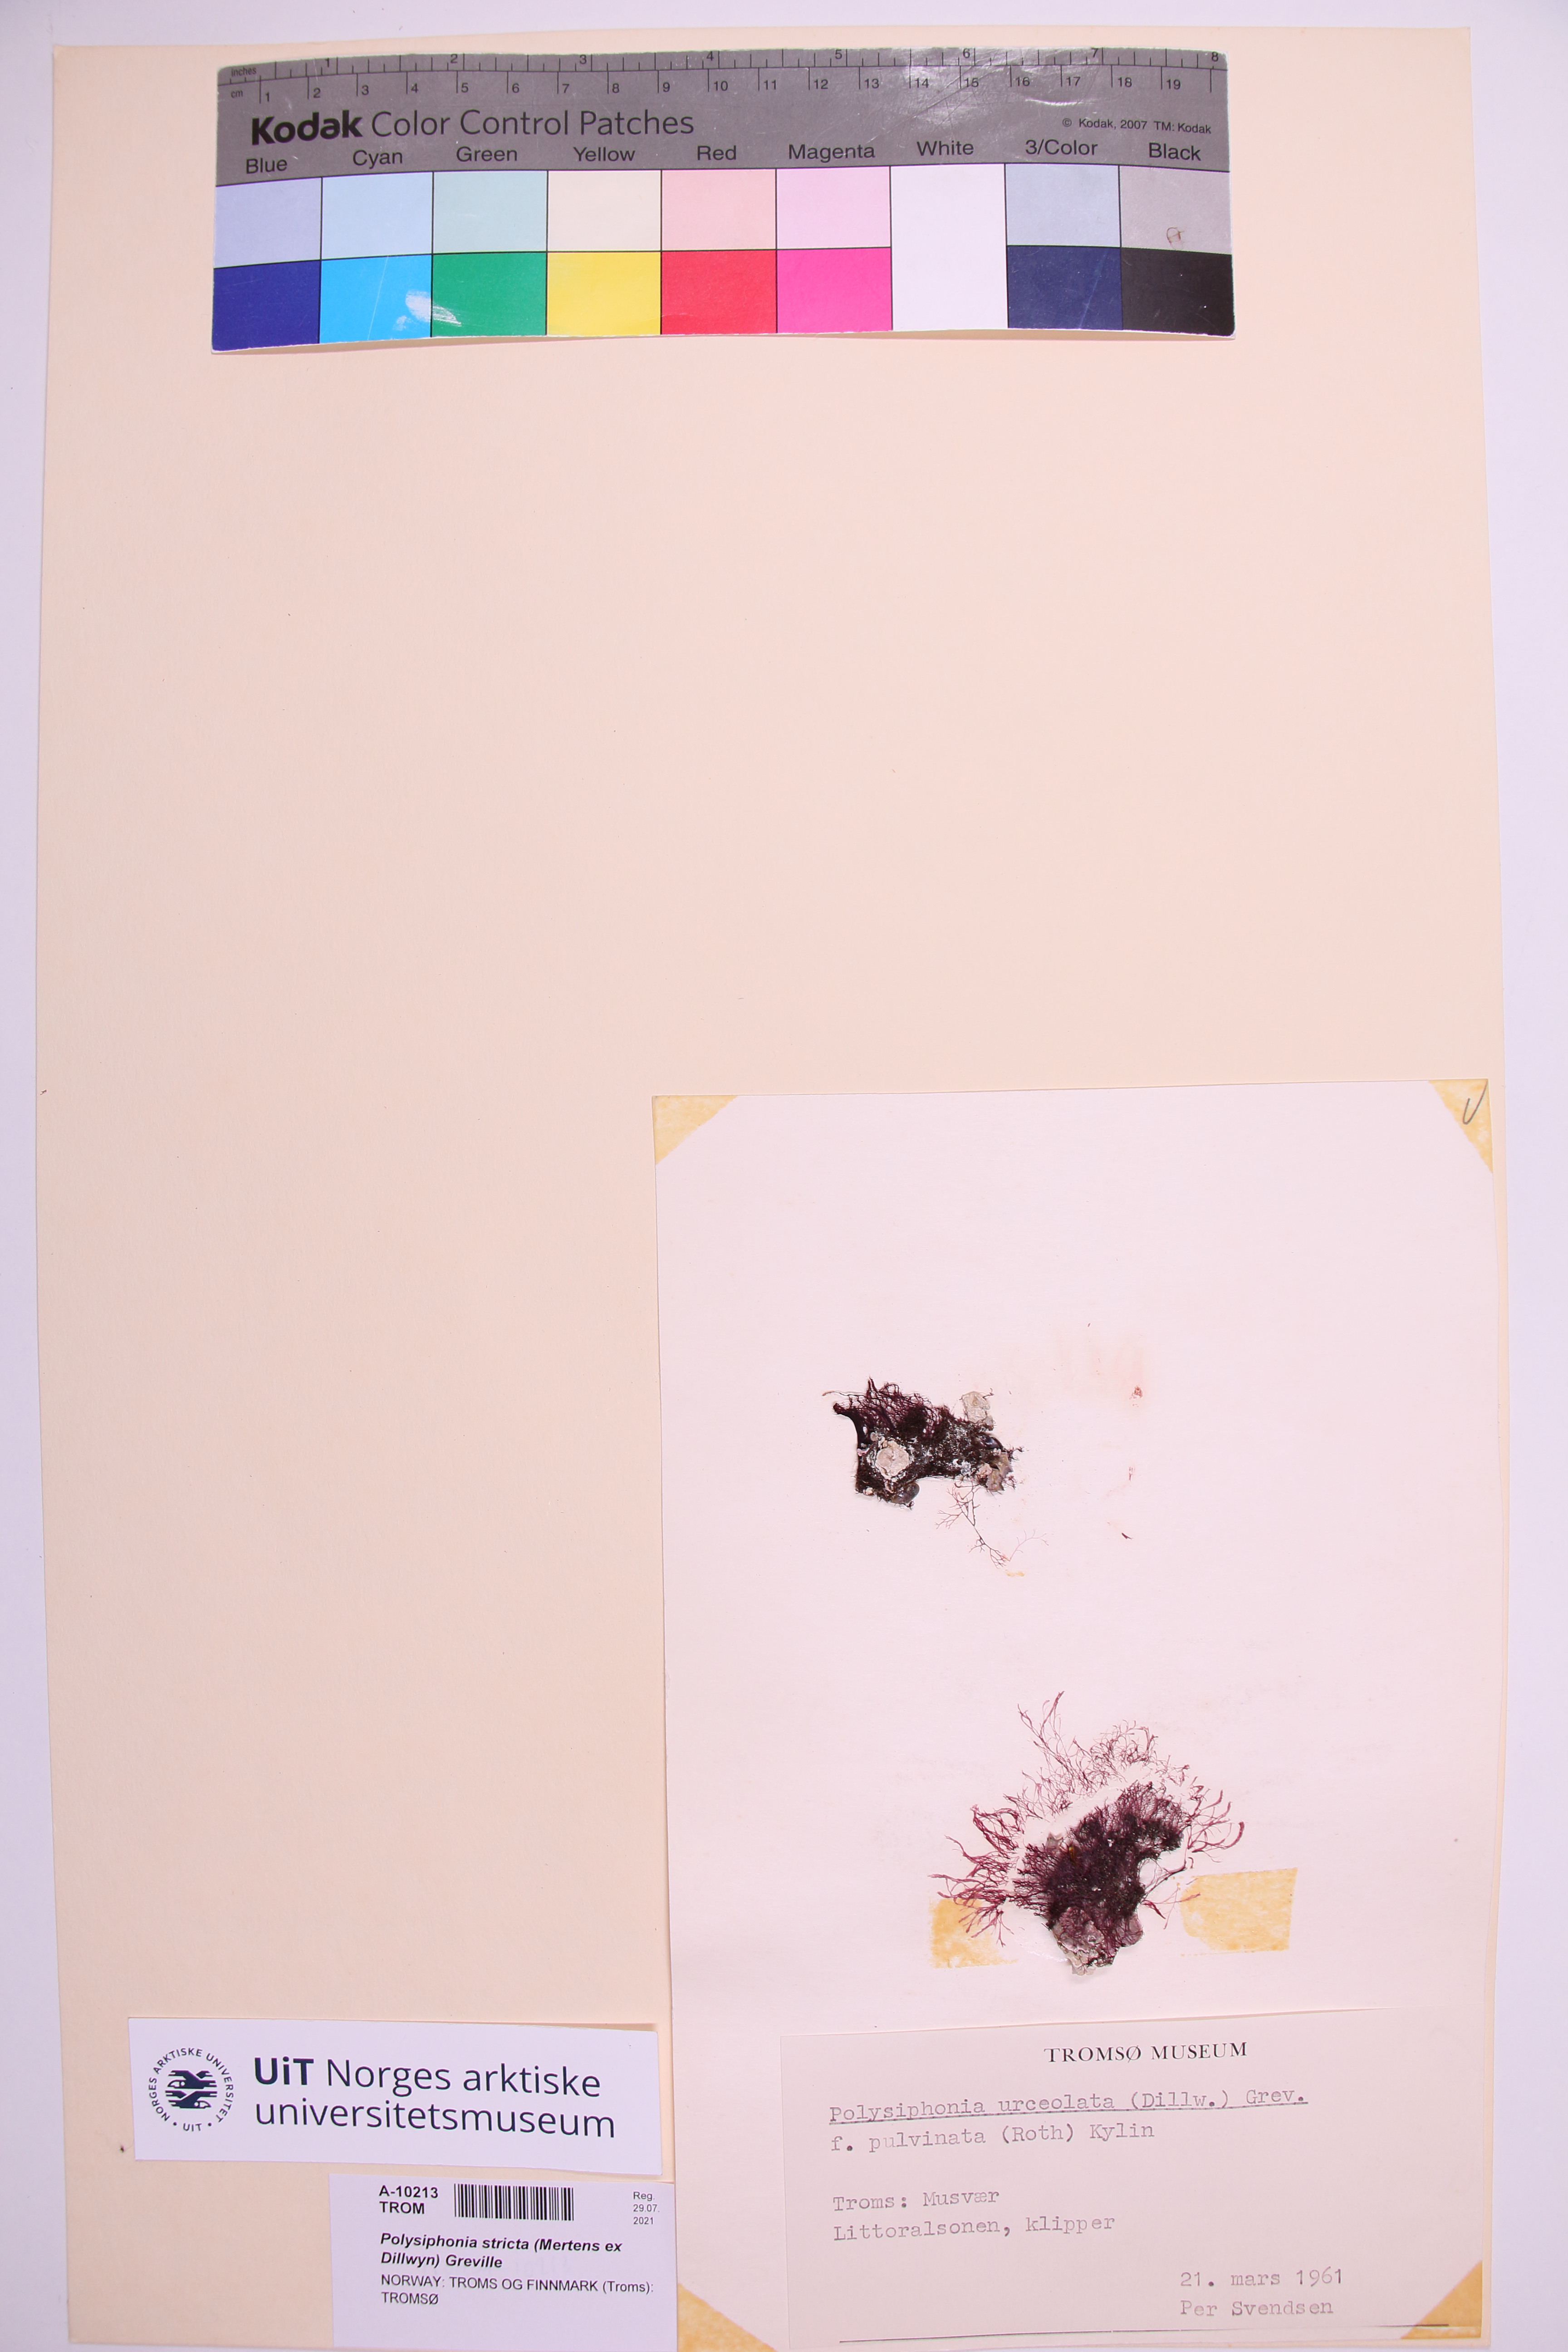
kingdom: Plantae
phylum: Rhodophyta
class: Florideophyceae
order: Ceramiales
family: Rhodomelaceae
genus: Polysiphonia
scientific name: Polysiphonia stricta
